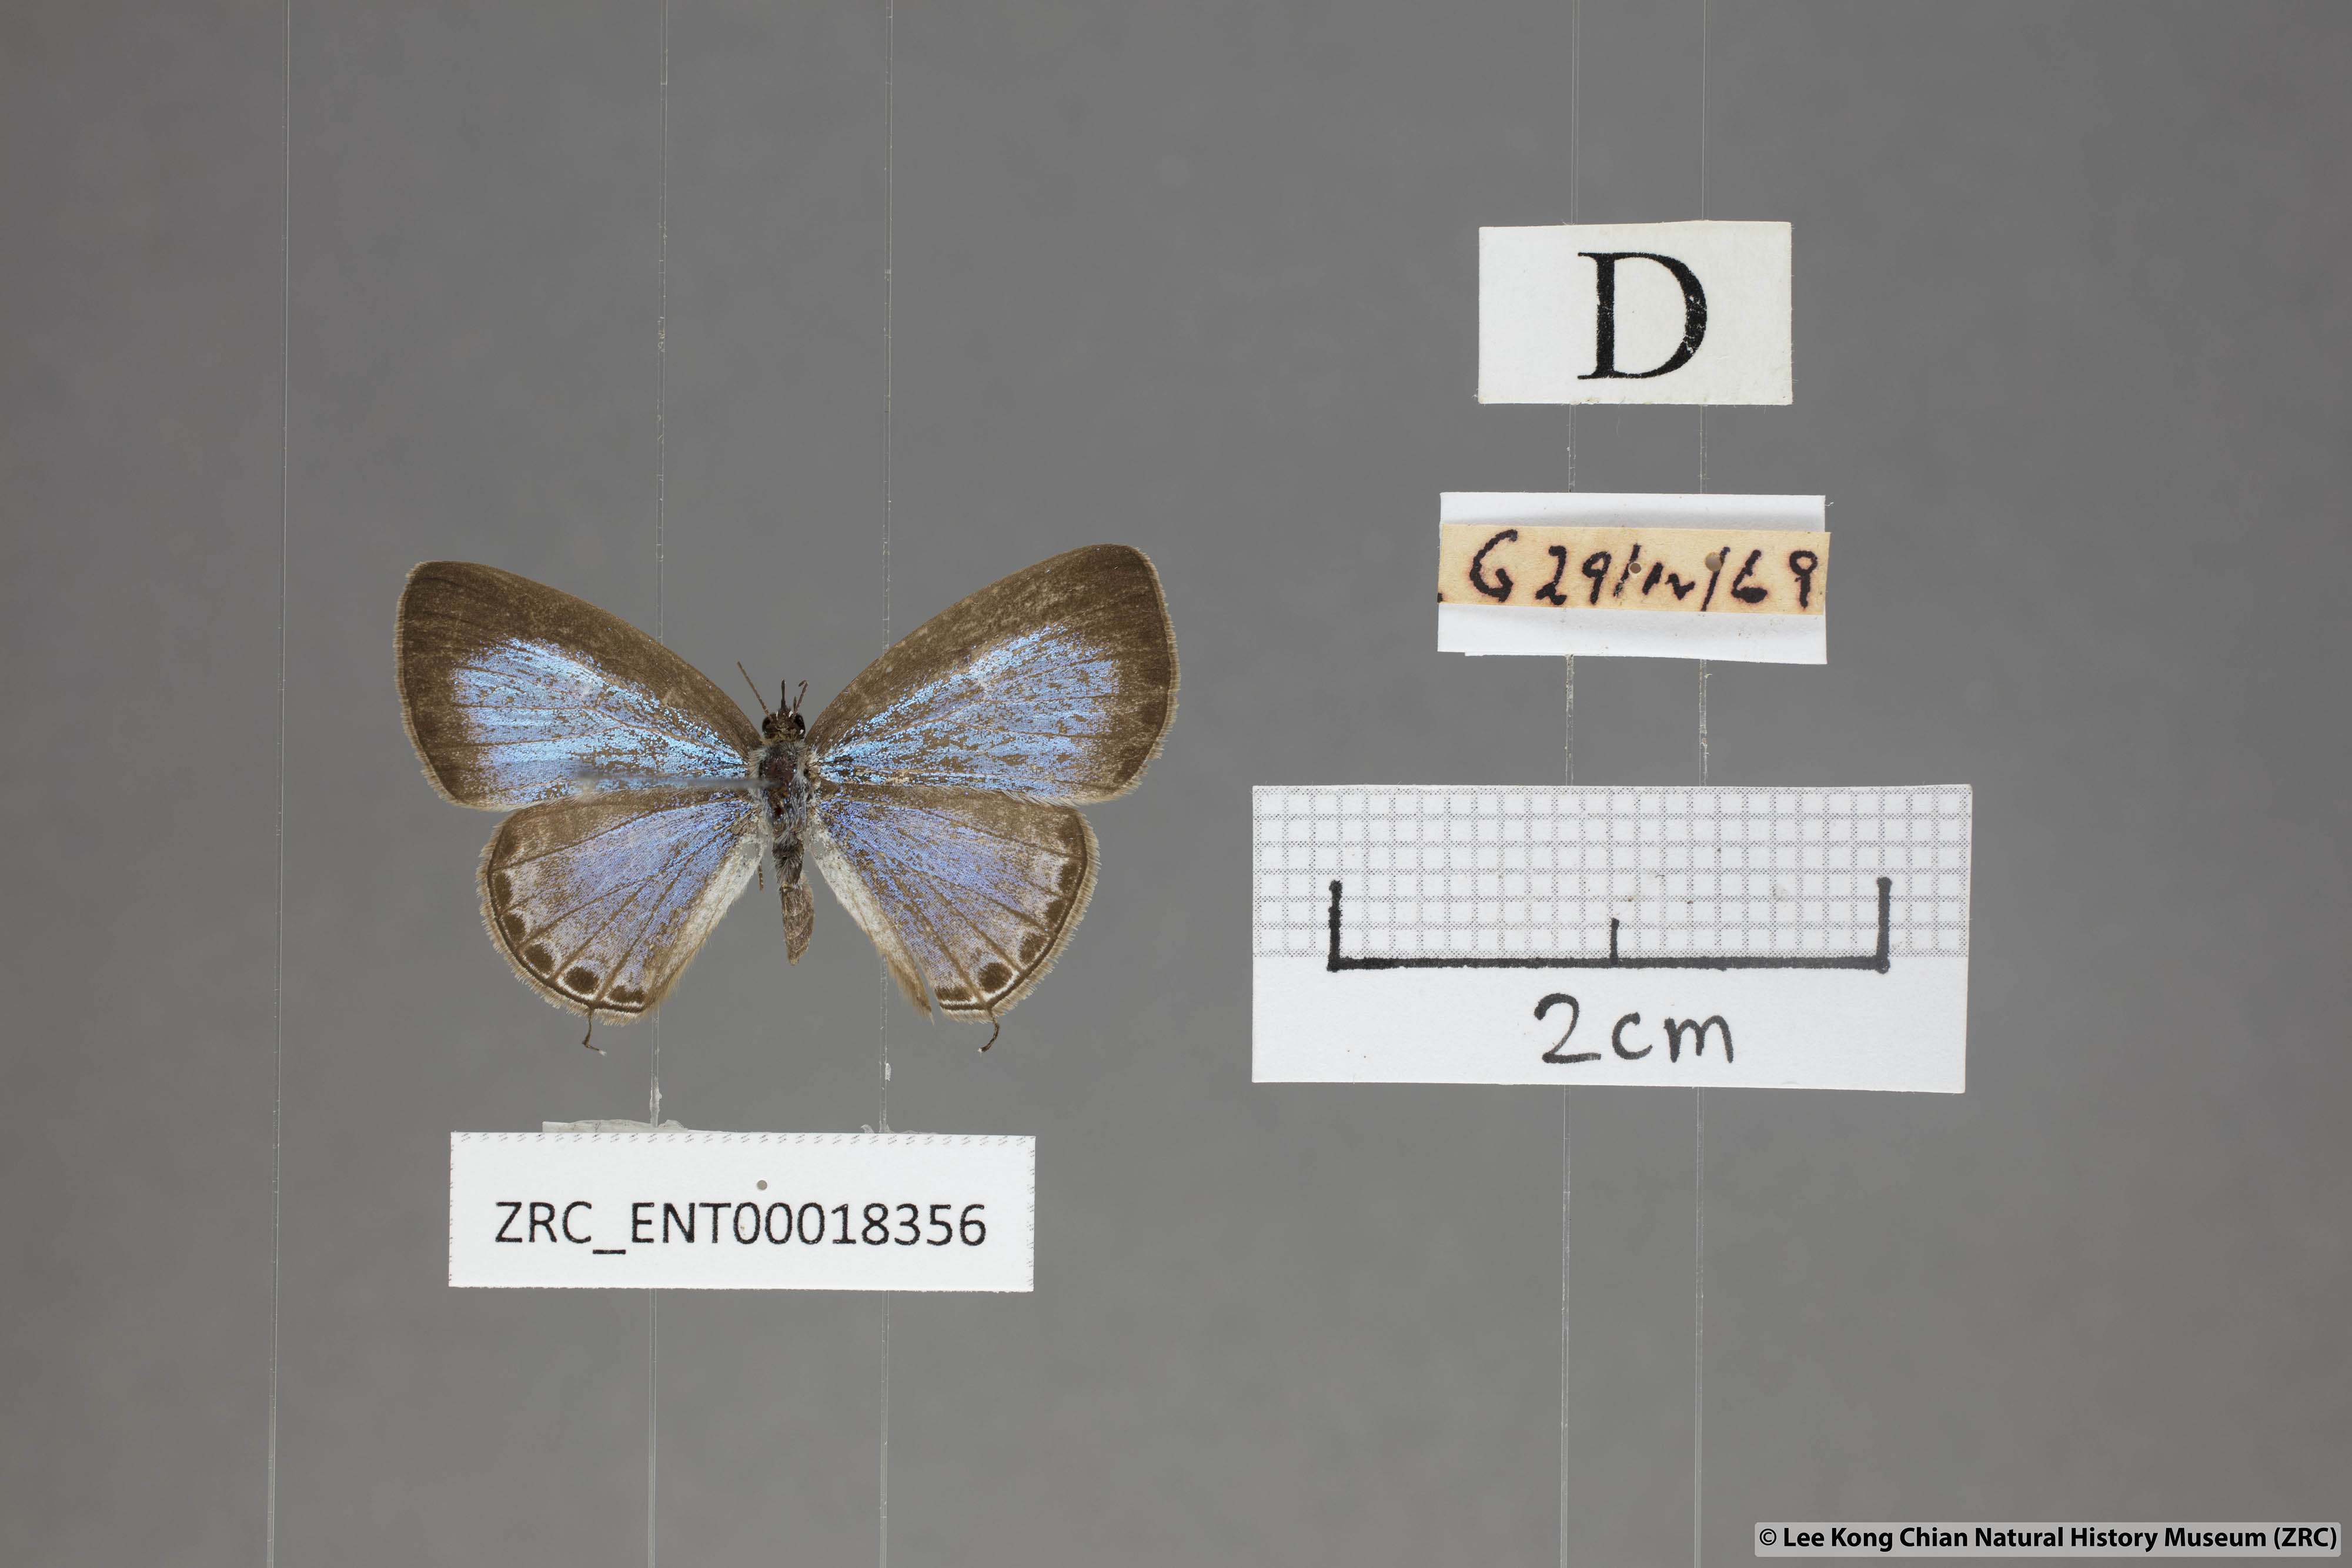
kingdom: Animalia
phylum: Arthropoda
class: Insecta
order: Lepidoptera
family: Lycaenidae
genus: Nacaduba
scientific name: Nacaduba hermus
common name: Pale four-line blue
